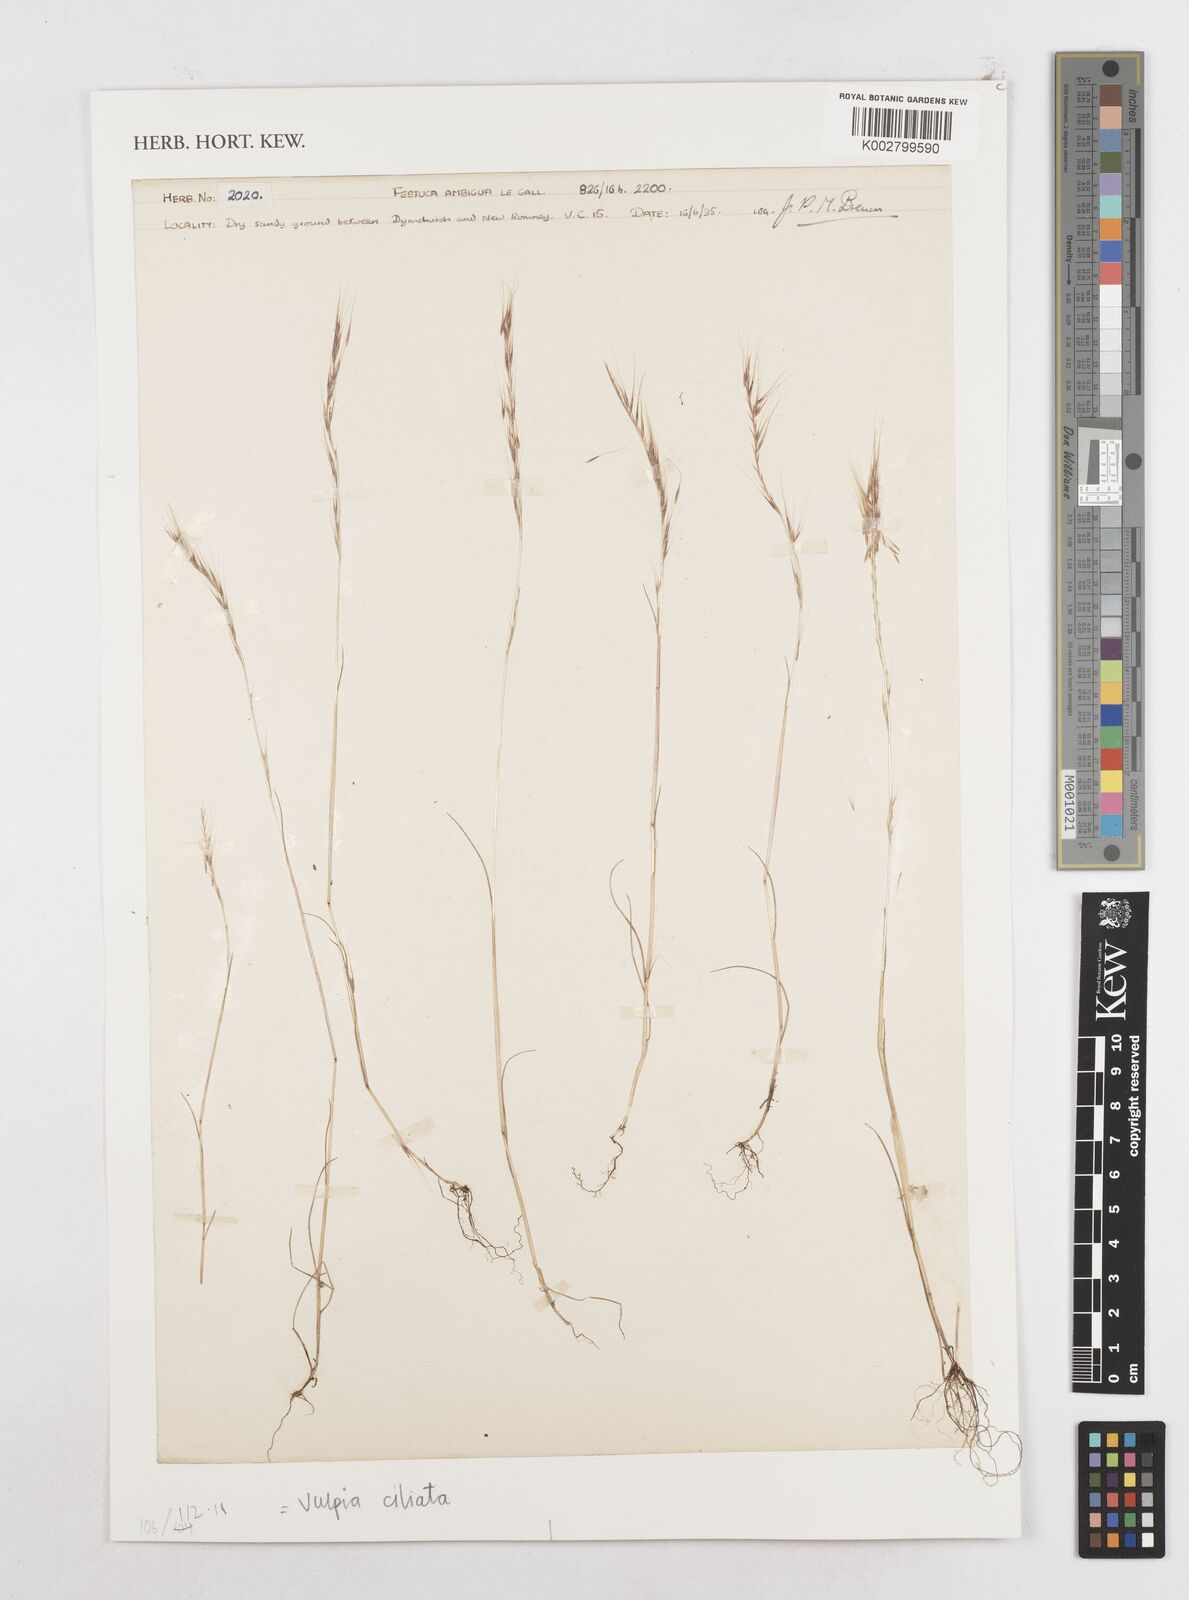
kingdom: Plantae
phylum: Tracheophyta
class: Liliopsida
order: Poales
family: Poaceae
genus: Festuca
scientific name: Festuca ambigua
